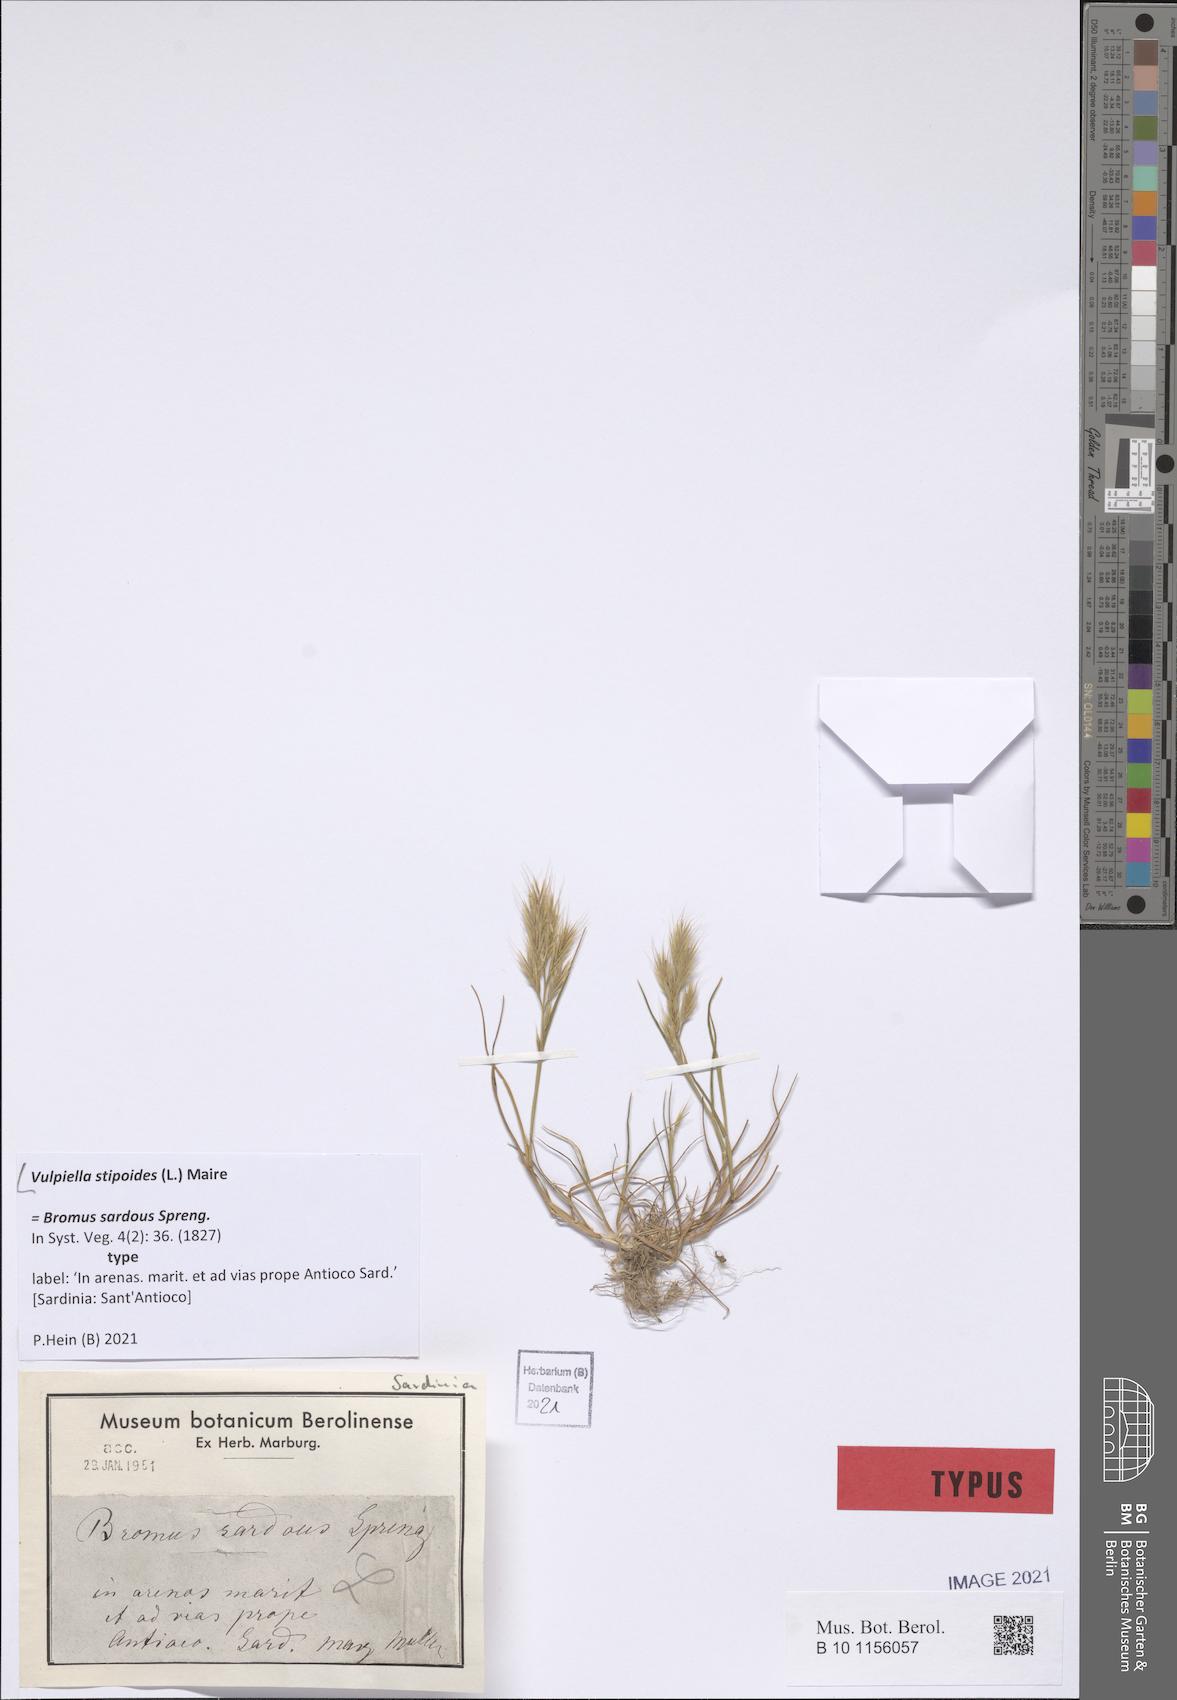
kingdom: Plantae
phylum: Tracheophyta
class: Liliopsida
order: Poales
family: Poaceae
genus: Vulpiella
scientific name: Vulpiella stipoides
